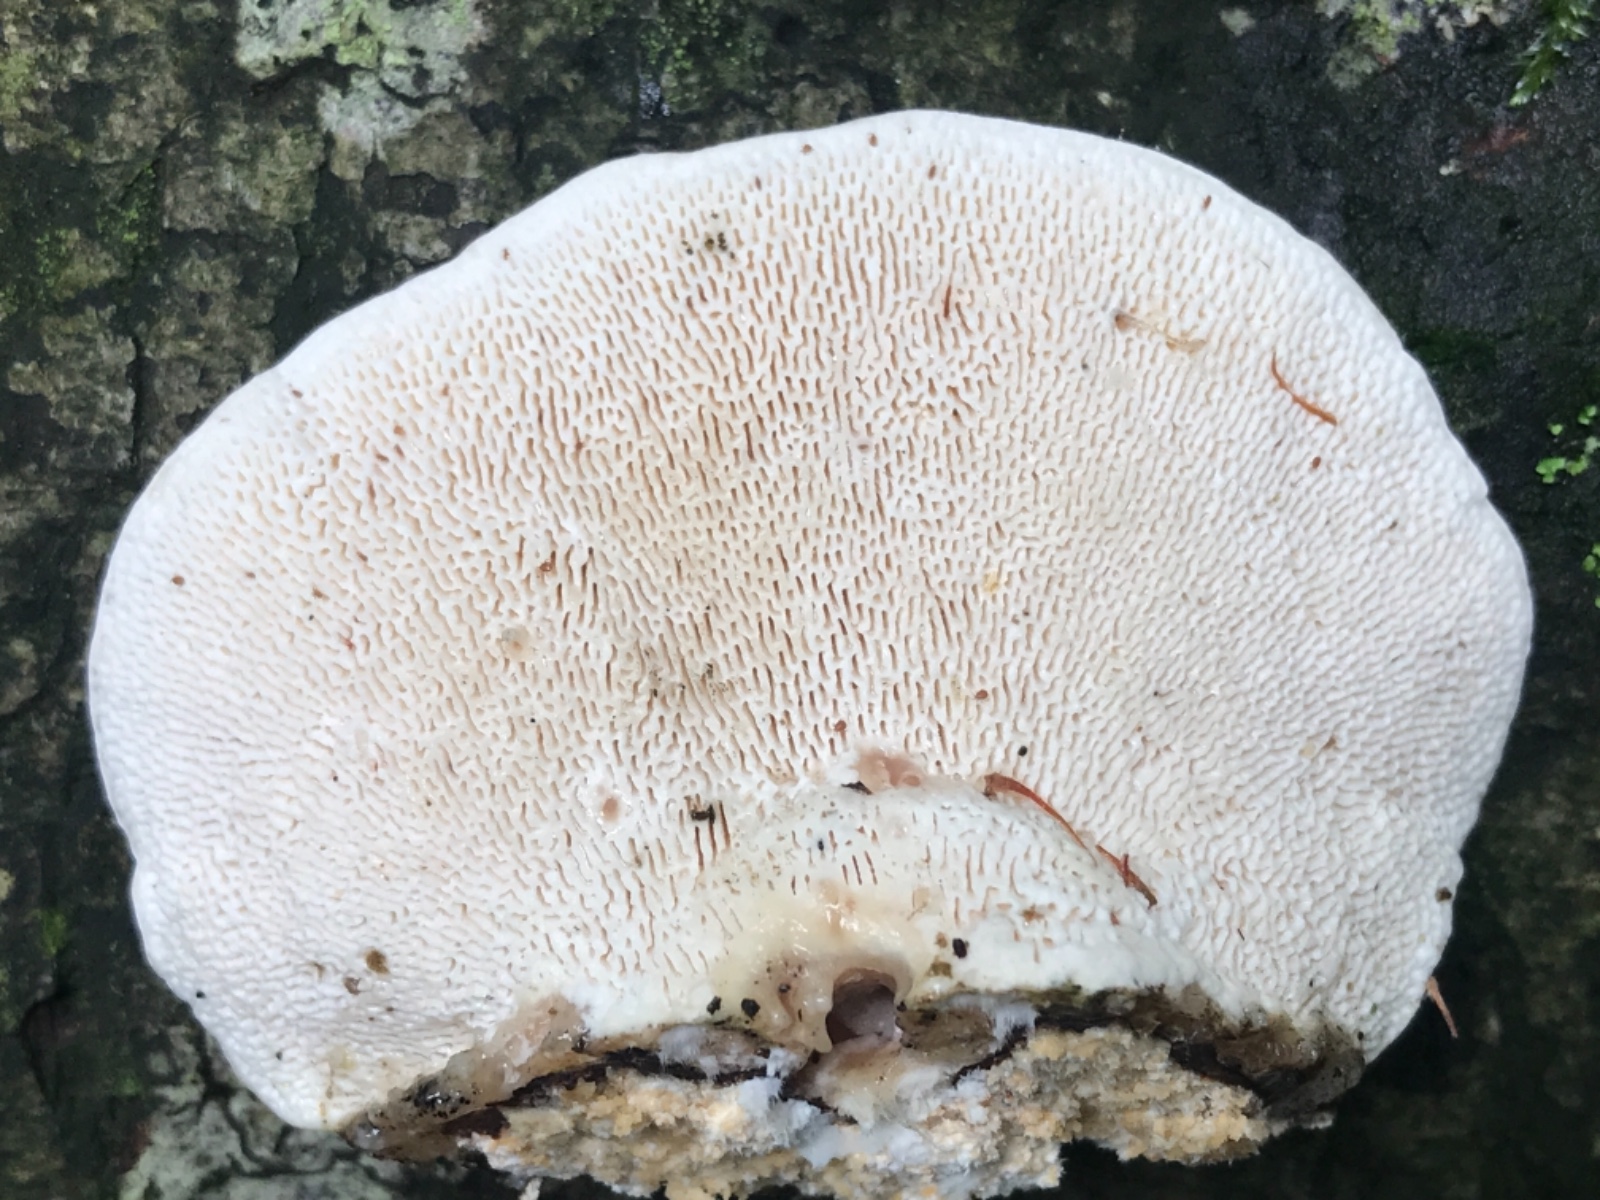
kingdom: Fungi
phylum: Basidiomycota
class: Agaricomycetes
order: Polyporales
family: Polyporaceae
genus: Trametes
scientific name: Trametes gibbosa
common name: puklet læderporesvamp
